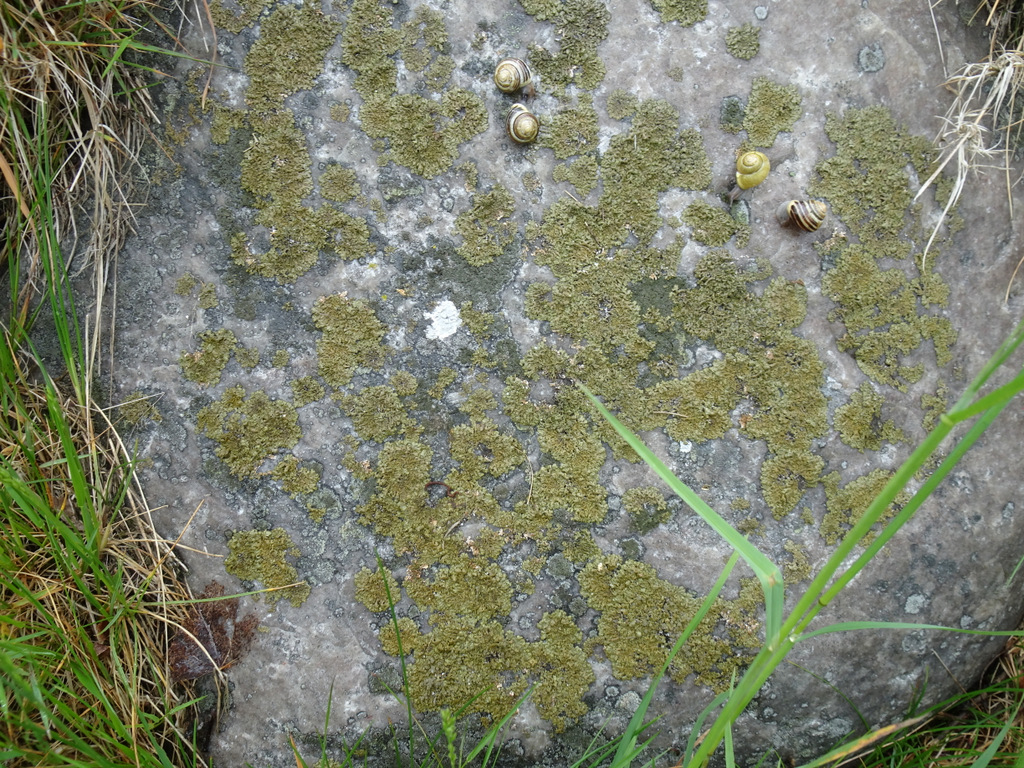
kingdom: Fungi
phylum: Ascomycota
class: Lecanoromycetes
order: Lecanorales
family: Parmeliaceae
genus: Xanthoparmelia
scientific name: Xanthoparmelia loxodes
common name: knudret skållav
